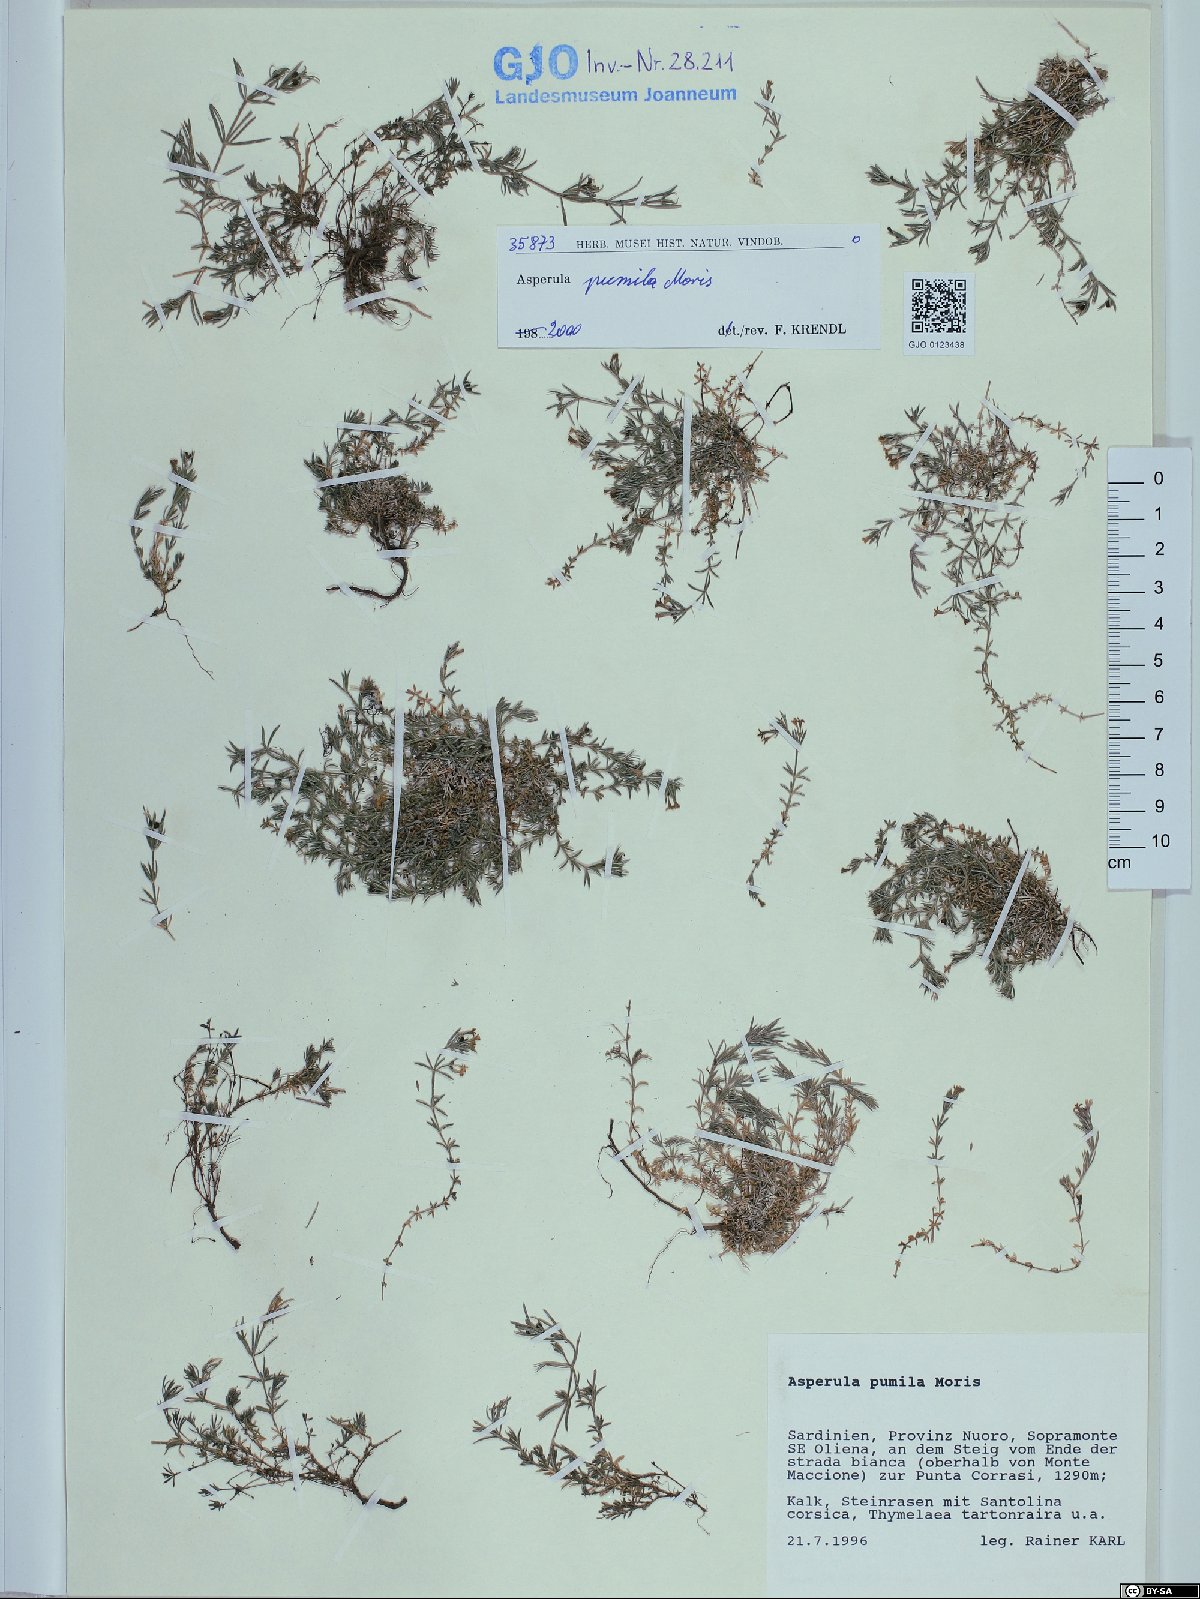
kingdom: Plantae
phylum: Tracheophyta
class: Magnoliopsida
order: Gentianales
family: Rubiaceae
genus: Cynanchica
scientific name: Cynanchica pumila
